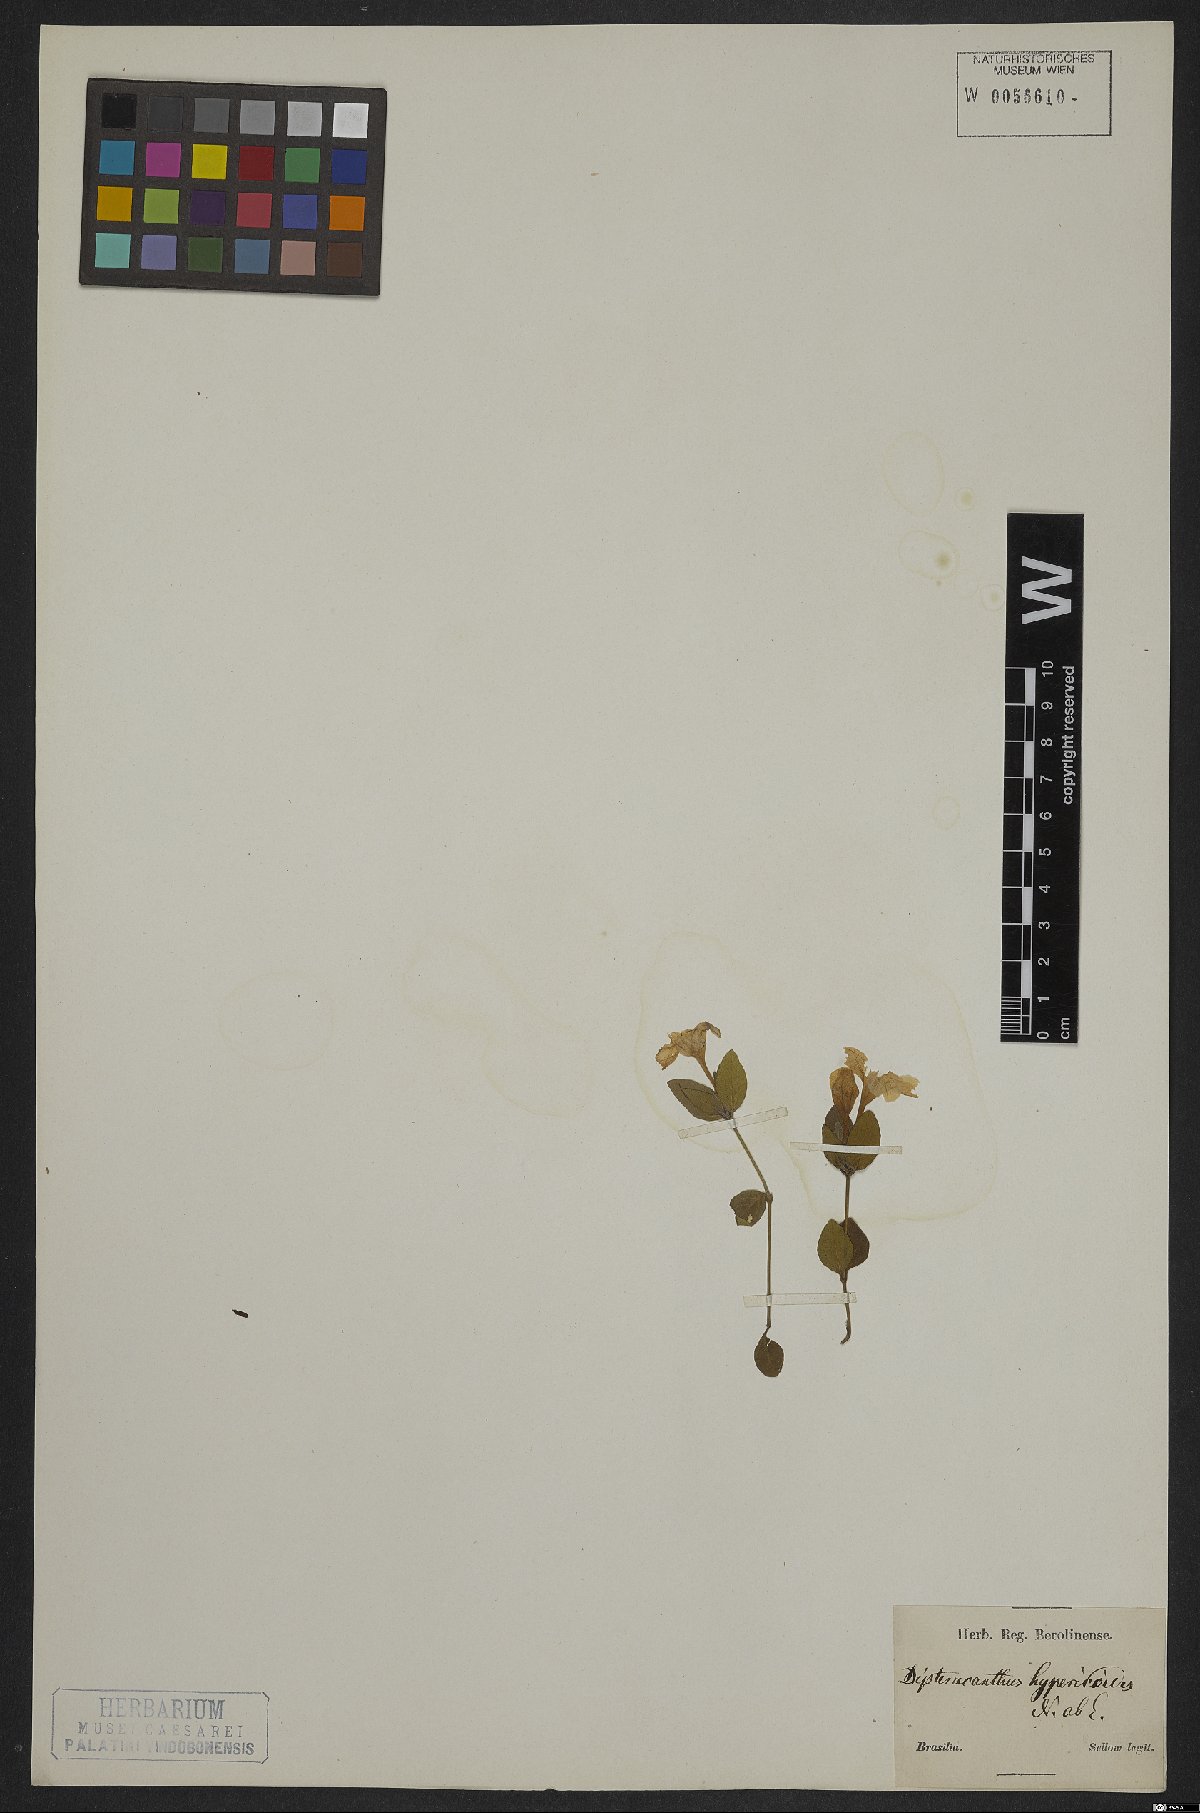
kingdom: Plantae
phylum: Tracheophyta
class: Magnoliopsida
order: Lamiales
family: Acanthaceae
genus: Ruellia
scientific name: Ruellia hypericoides
